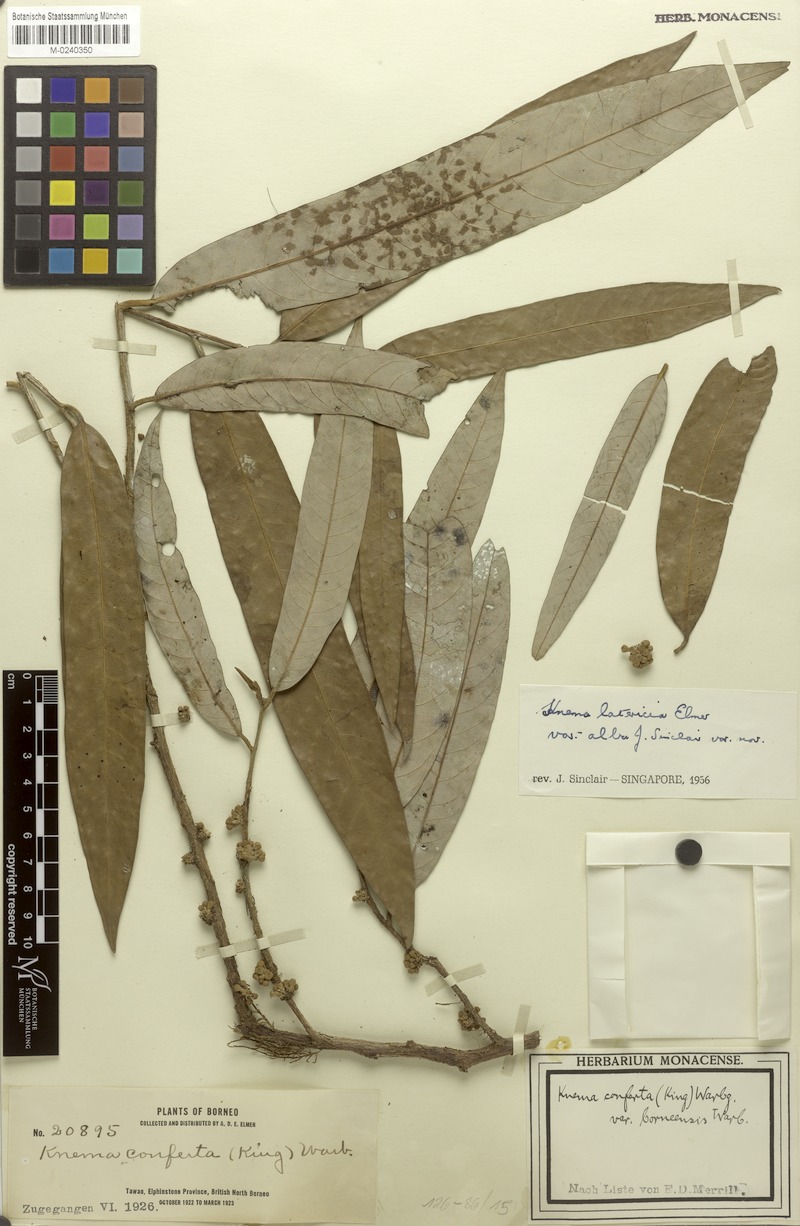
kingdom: Plantae
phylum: Tracheophyta
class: Magnoliopsida
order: Magnoliales
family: Myristicaceae
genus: Knema
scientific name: Knema latericia
